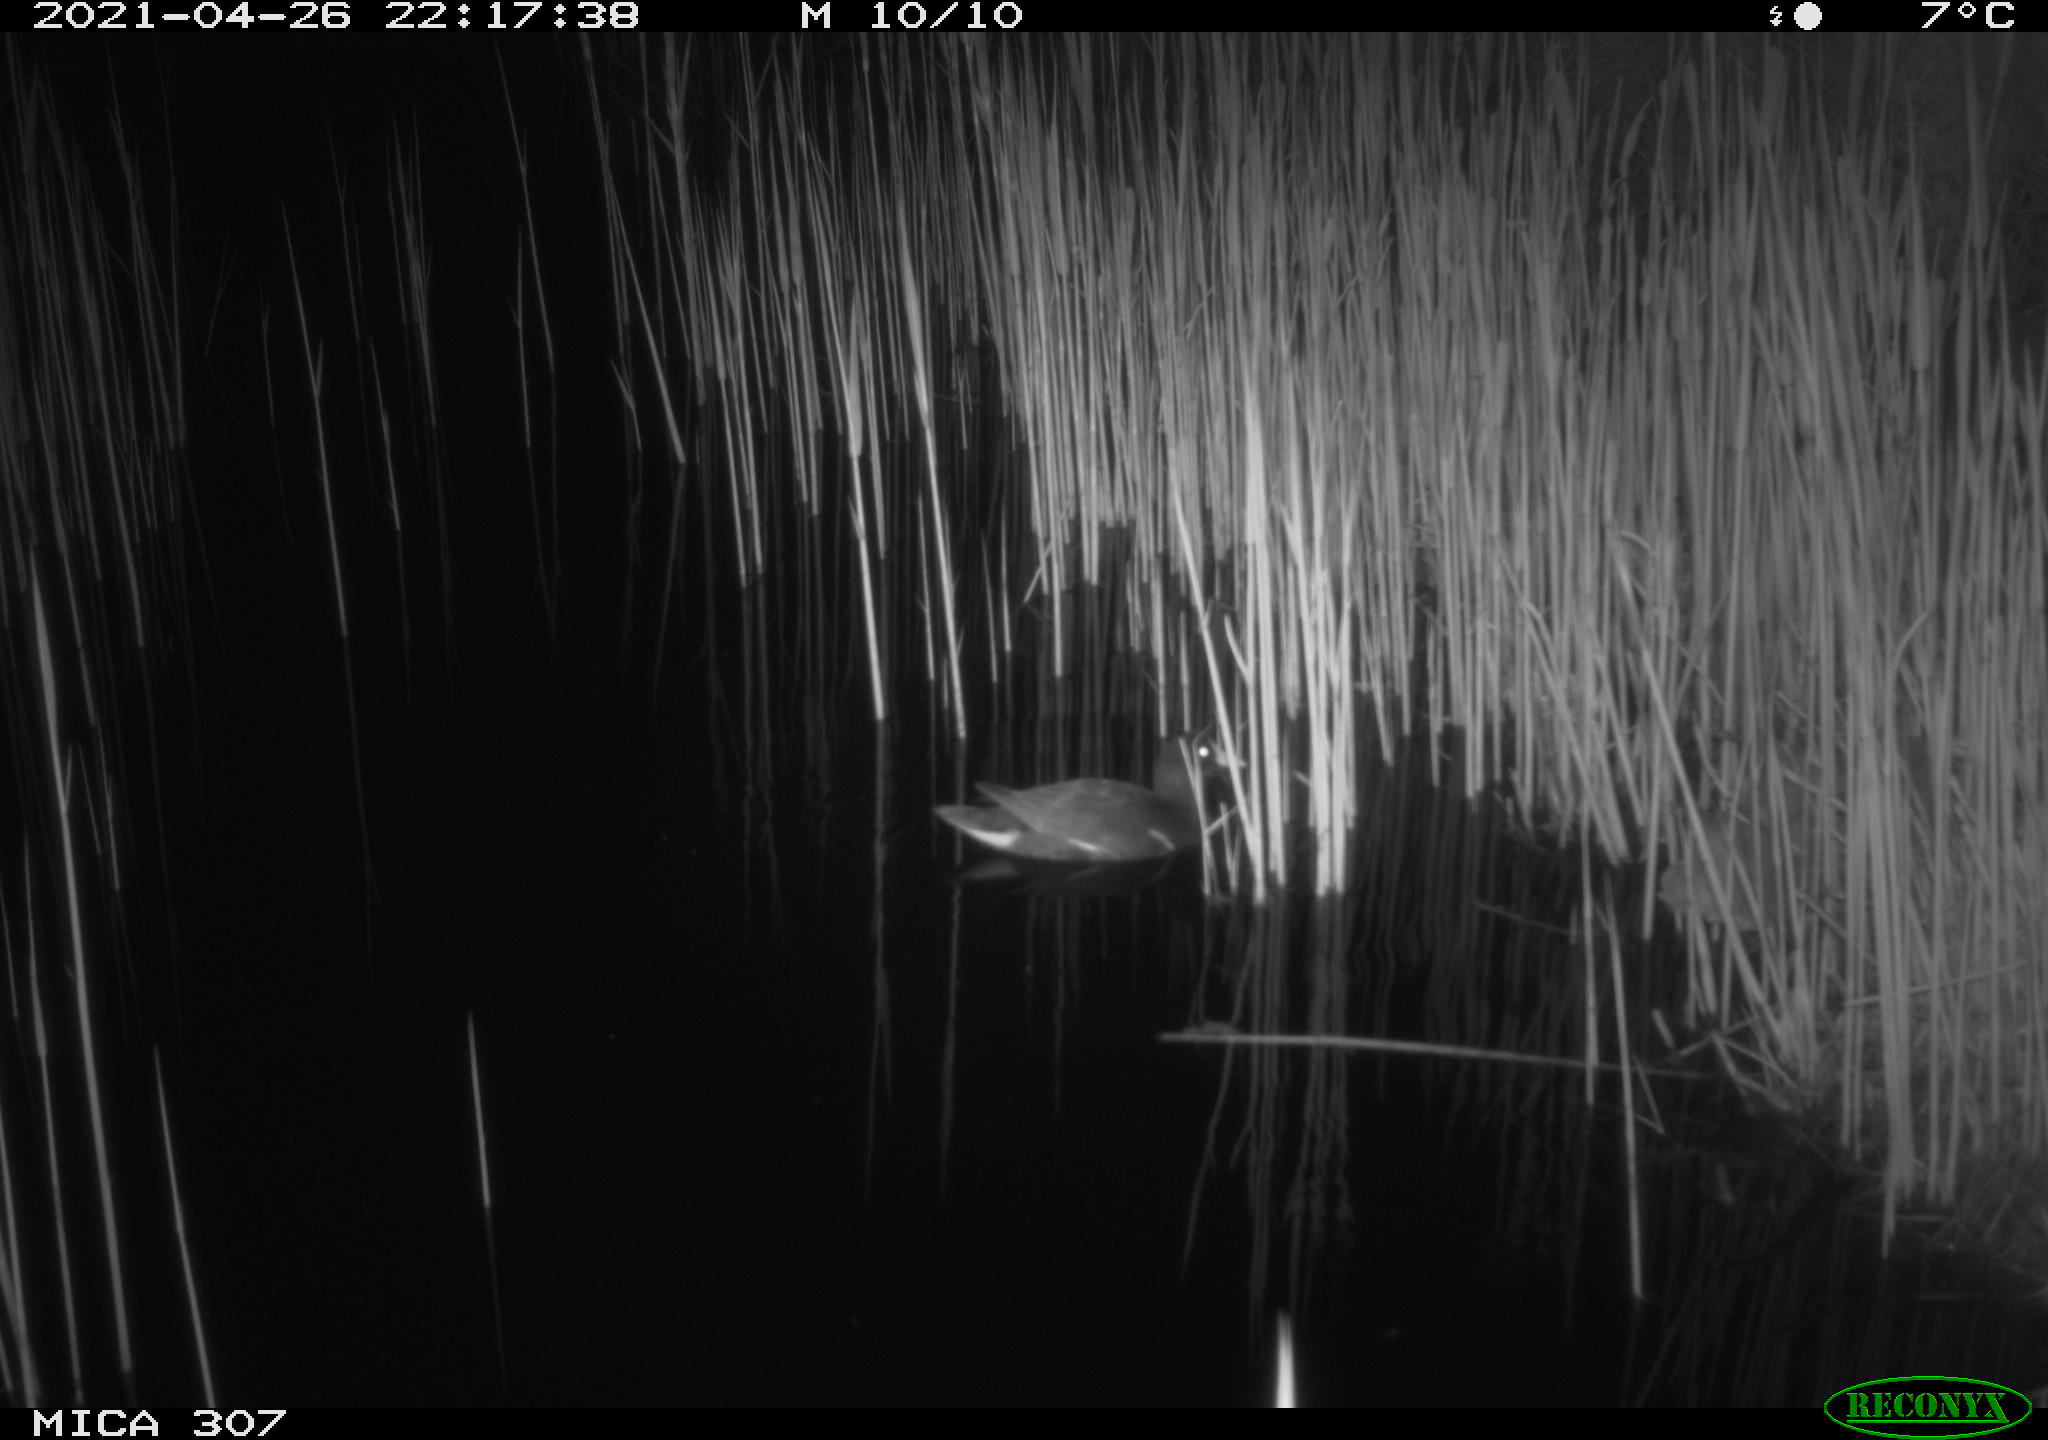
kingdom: Animalia
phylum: Chordata
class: Aves
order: Gruiformes
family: Rallidae
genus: Gallinula
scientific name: Gallinula chloropus
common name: Common moorhen
